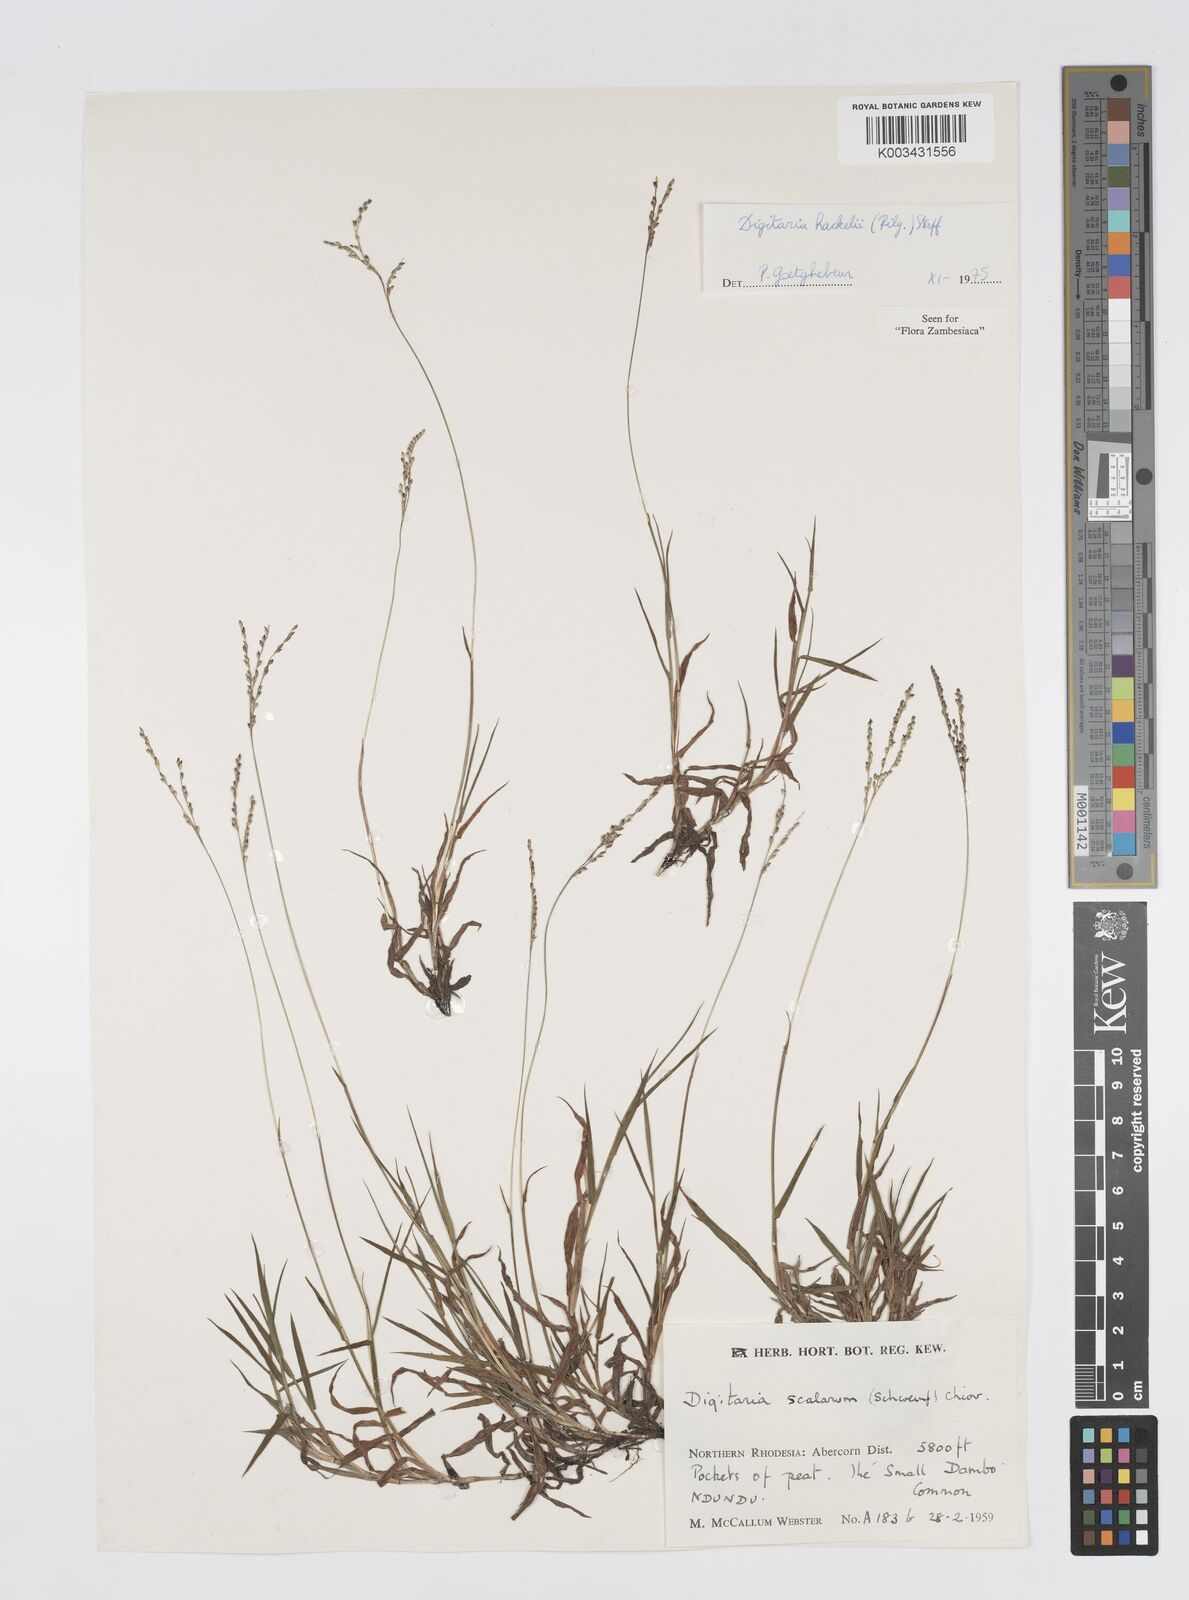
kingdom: Plantae
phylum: Tracheophyta
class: Liliopsida
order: Poales
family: Poaceae
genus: Digitaria
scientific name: Digitaria abyssinica
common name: African couchgrass
